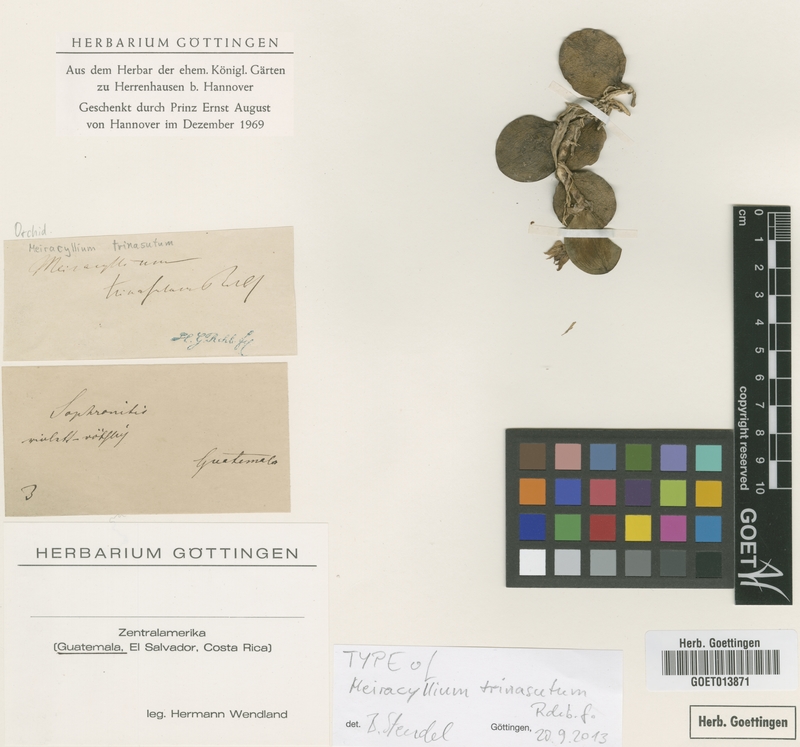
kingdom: Plantae
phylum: Tracheophyta
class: Liliopsida
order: Asparagales
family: Orchidaceae
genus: Meiracyllium
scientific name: Meiracyllium trinasutum
